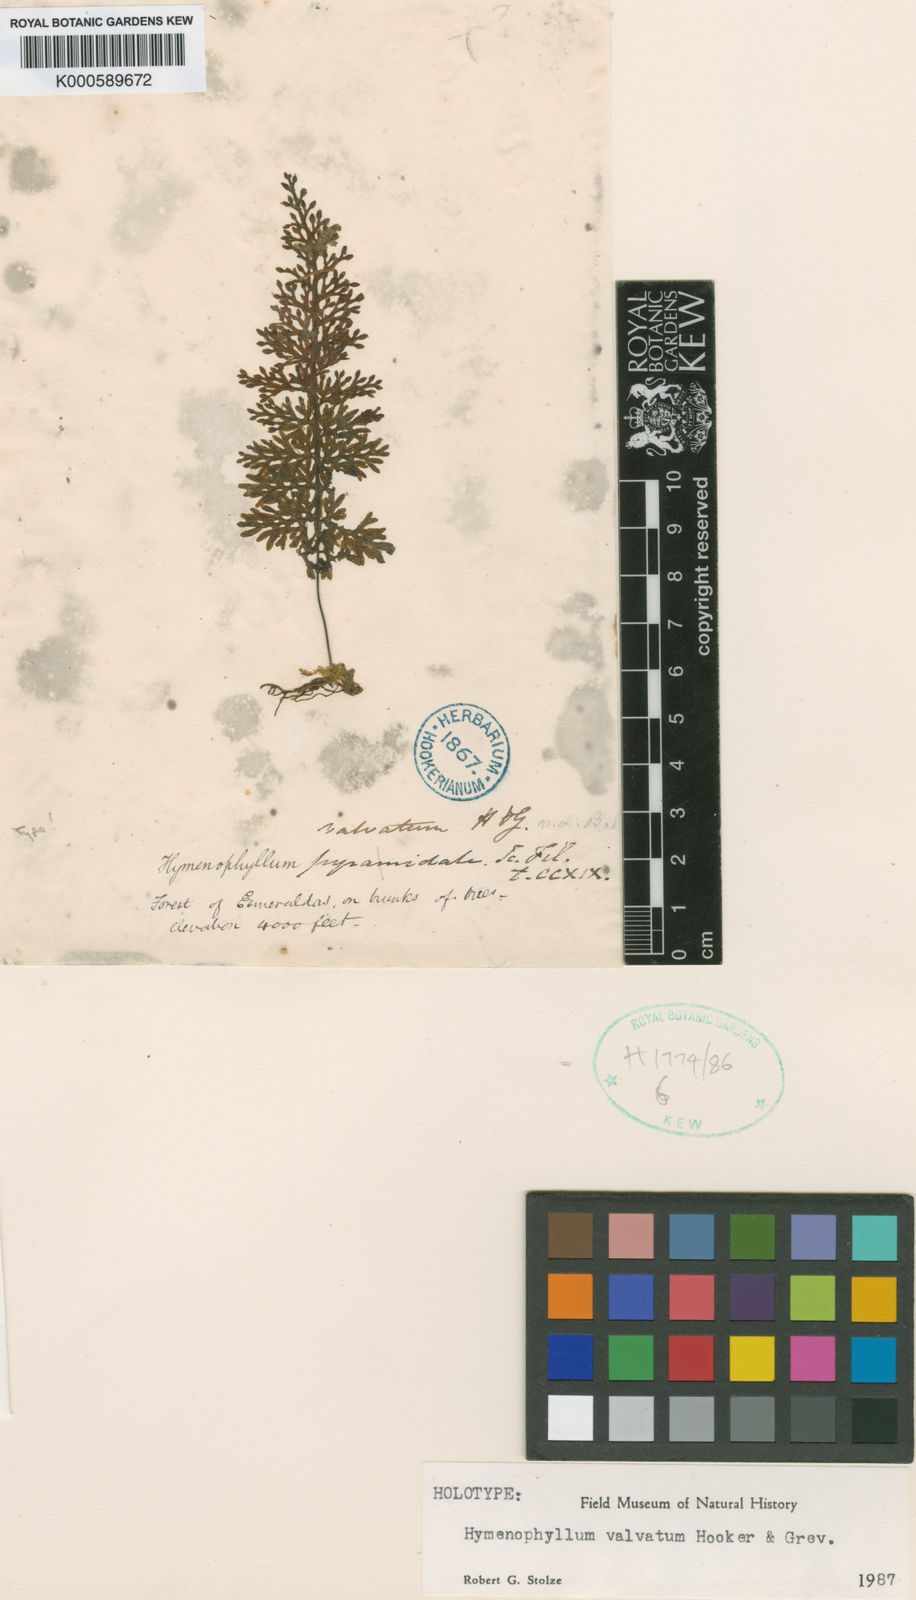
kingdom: Plantae
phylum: Tracheophyta
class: Polypodiopsida
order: Hymenophyllales
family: Hymenophyllaceae
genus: Hymenophyllum
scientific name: Hymenophyllum valvatum
